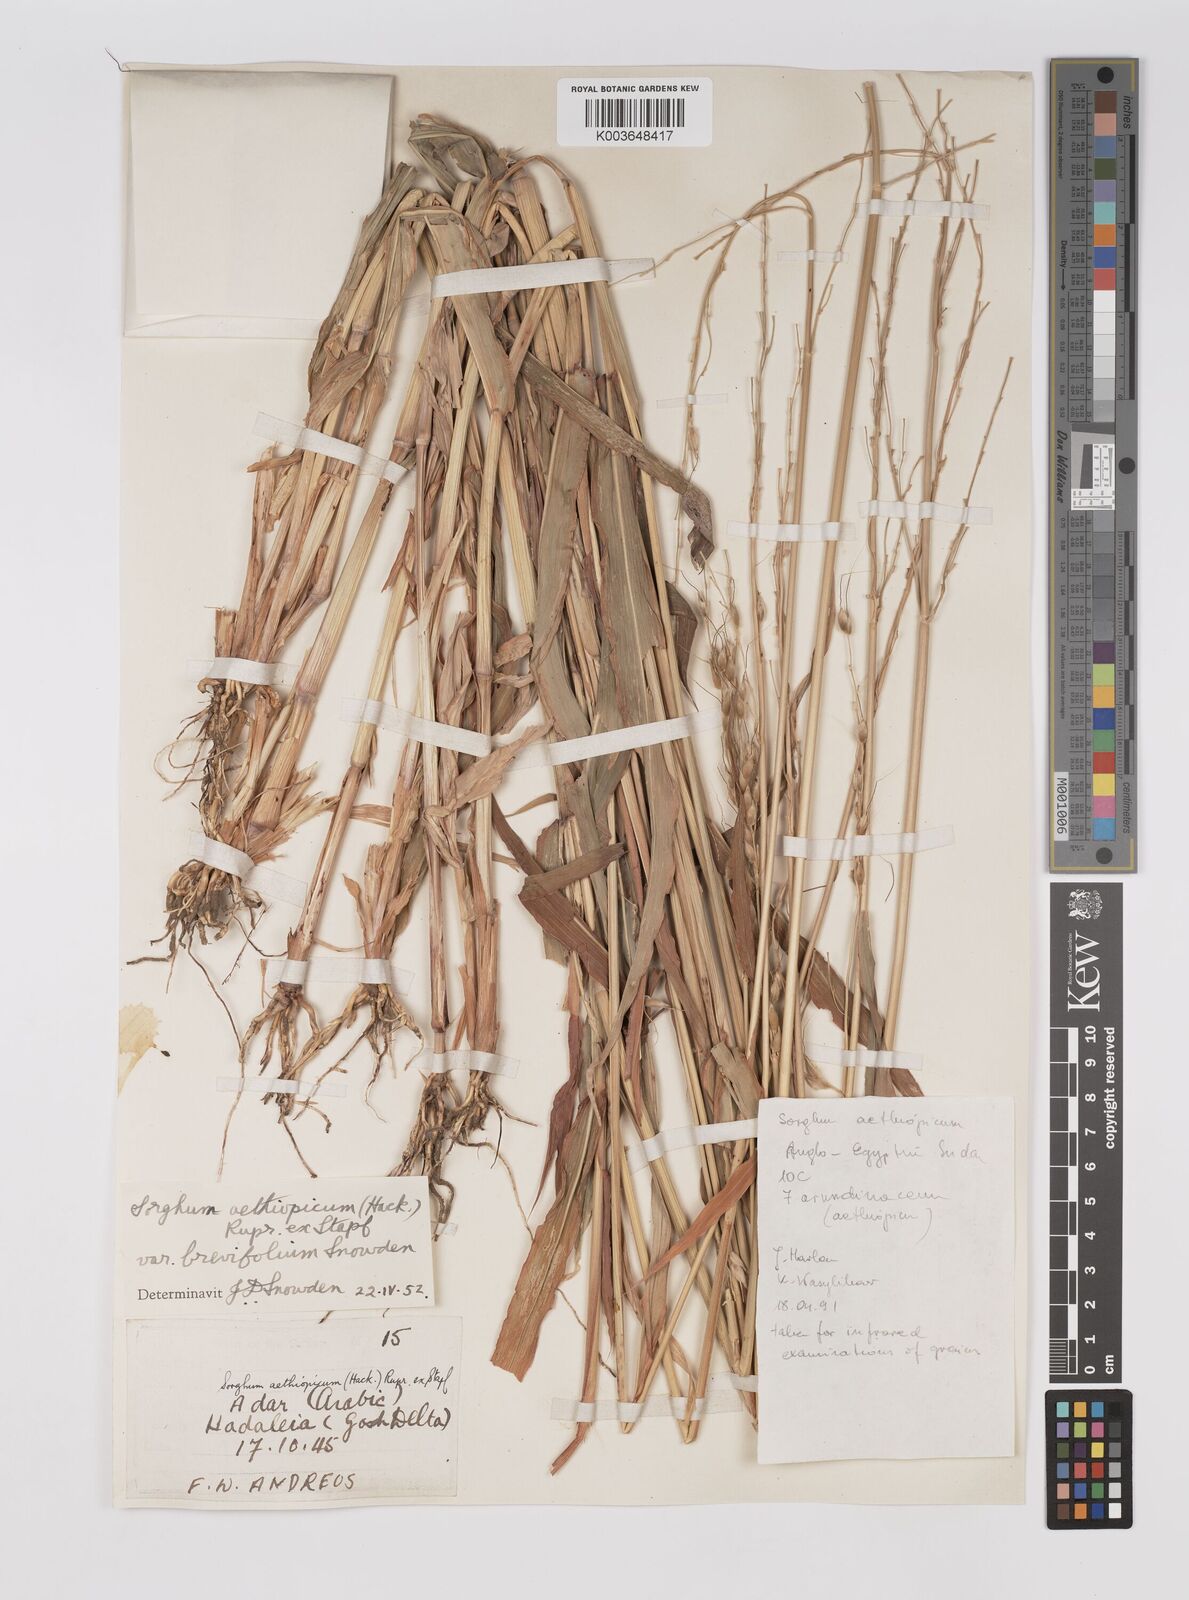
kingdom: Plantae
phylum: Tracheophyta
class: Liliopsida
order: Poales
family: Poaceae
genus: Sorghum
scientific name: Sorghum arundinaceum
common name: Sorghum
